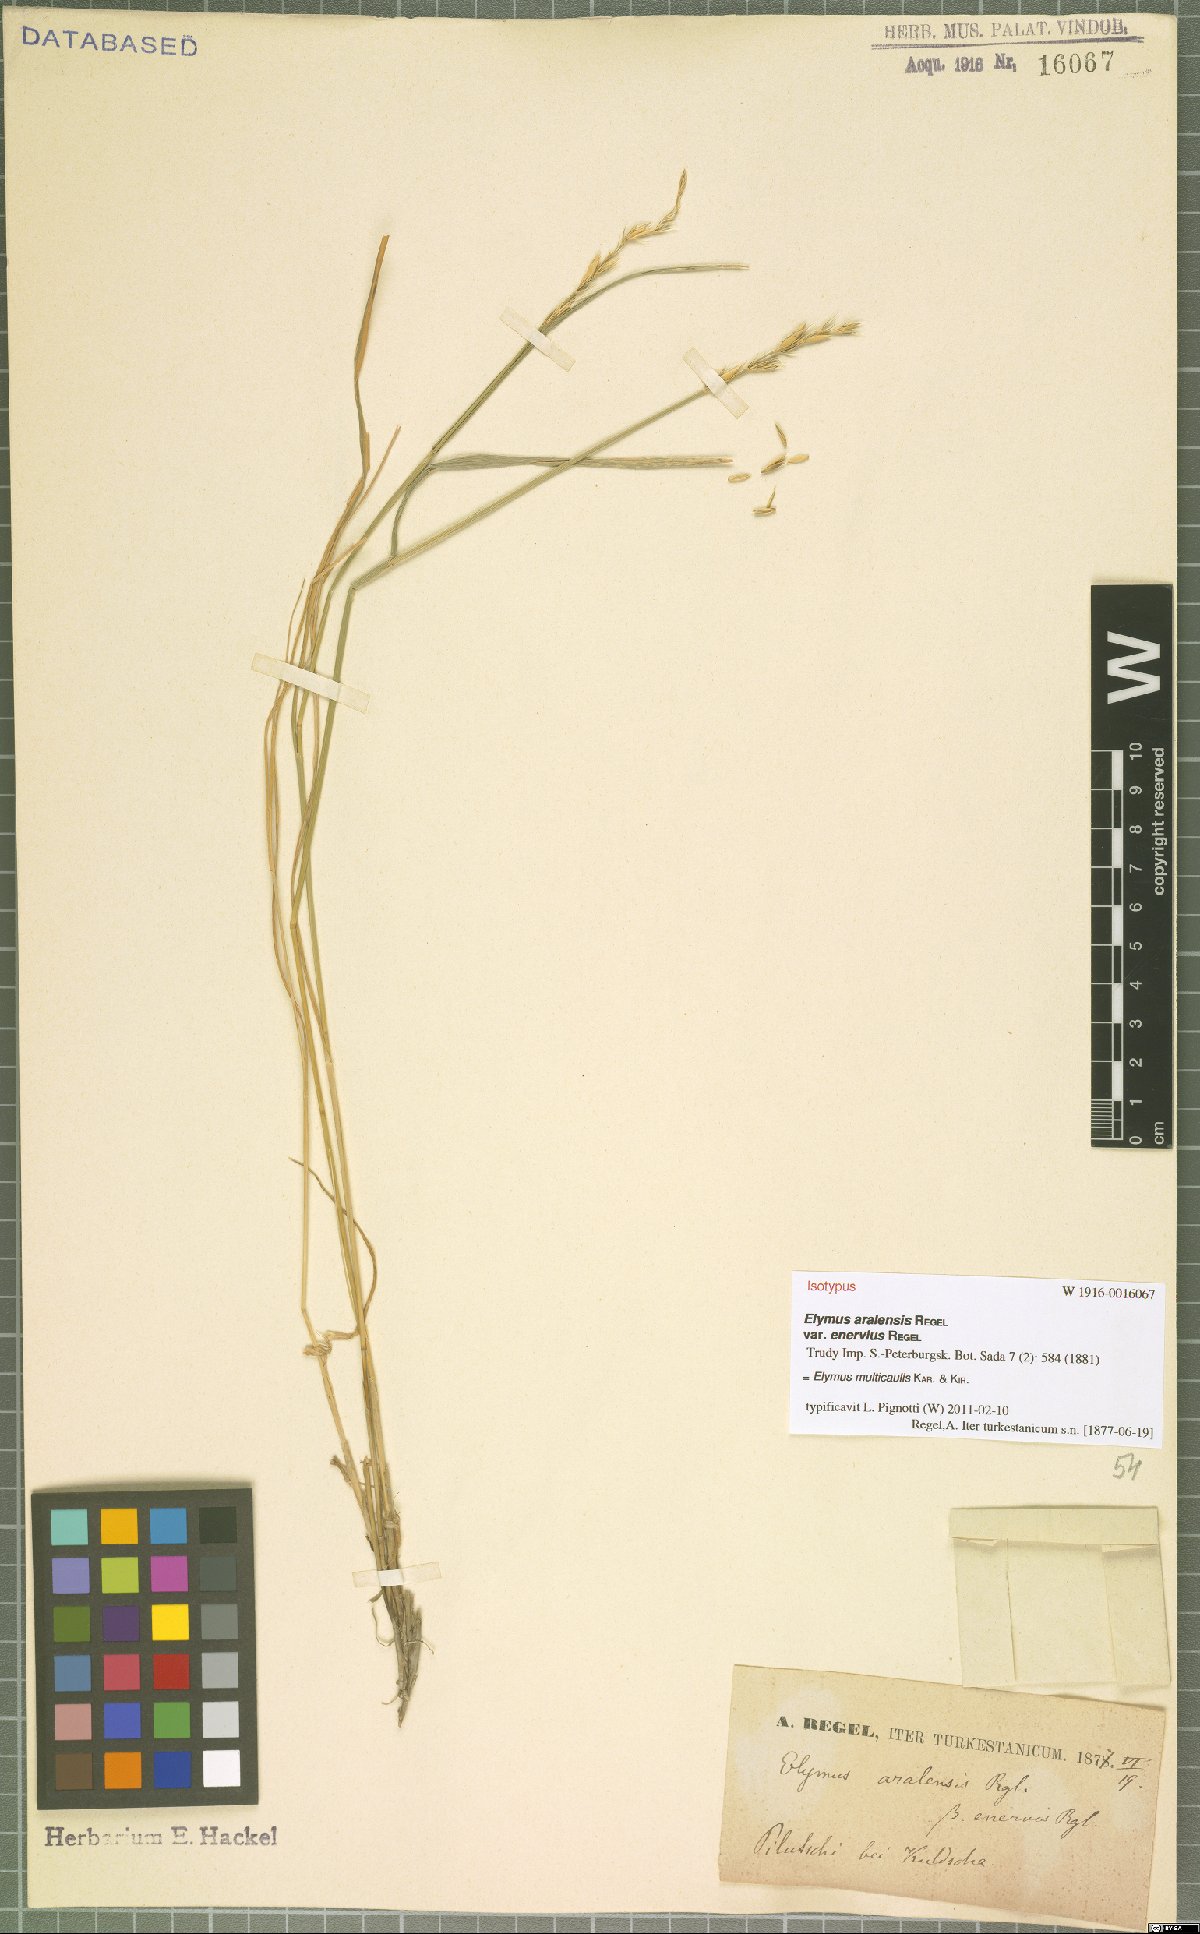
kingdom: Plantae
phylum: Tracheophyta
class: Liliopsida
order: Poales
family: Poaceae
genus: Leymus
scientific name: Leymus multicaulis
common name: Manystem wildrye
